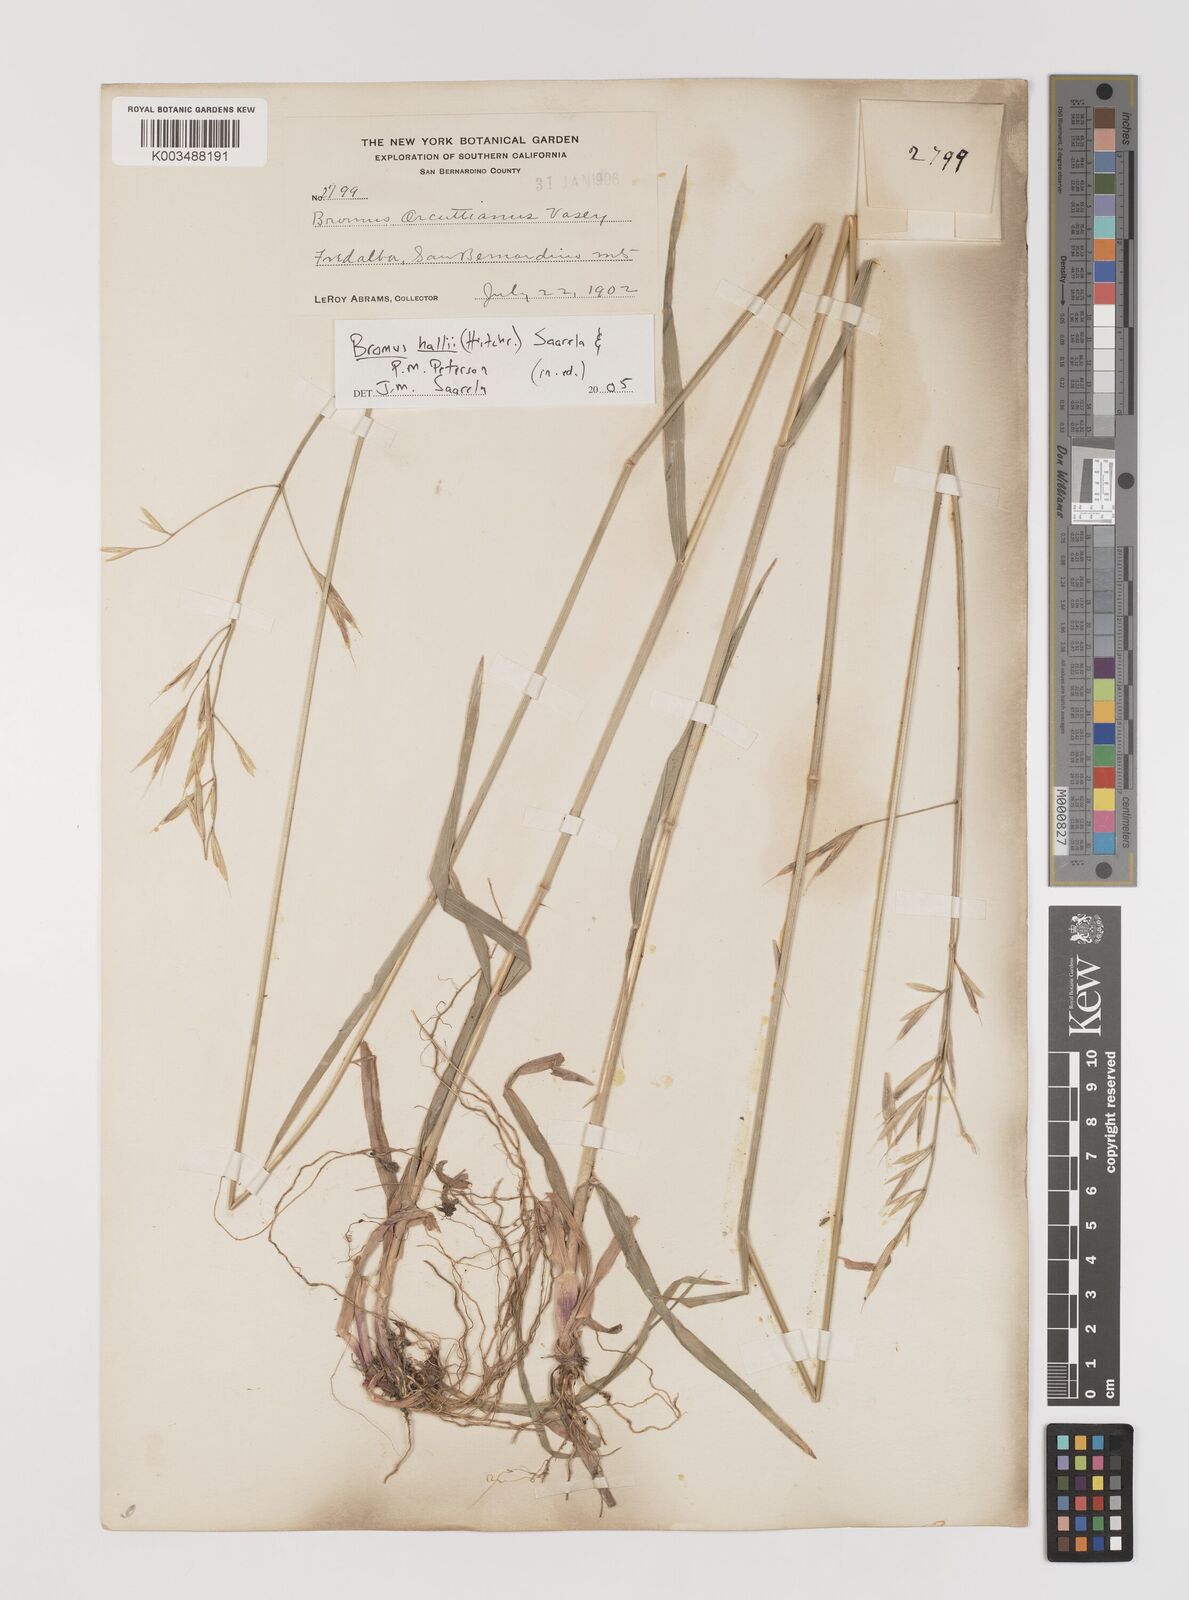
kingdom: Plantae
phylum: Tracheophyta
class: Liliopsida
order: Poales
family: Poaceae
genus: Bromus
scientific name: Bromus
